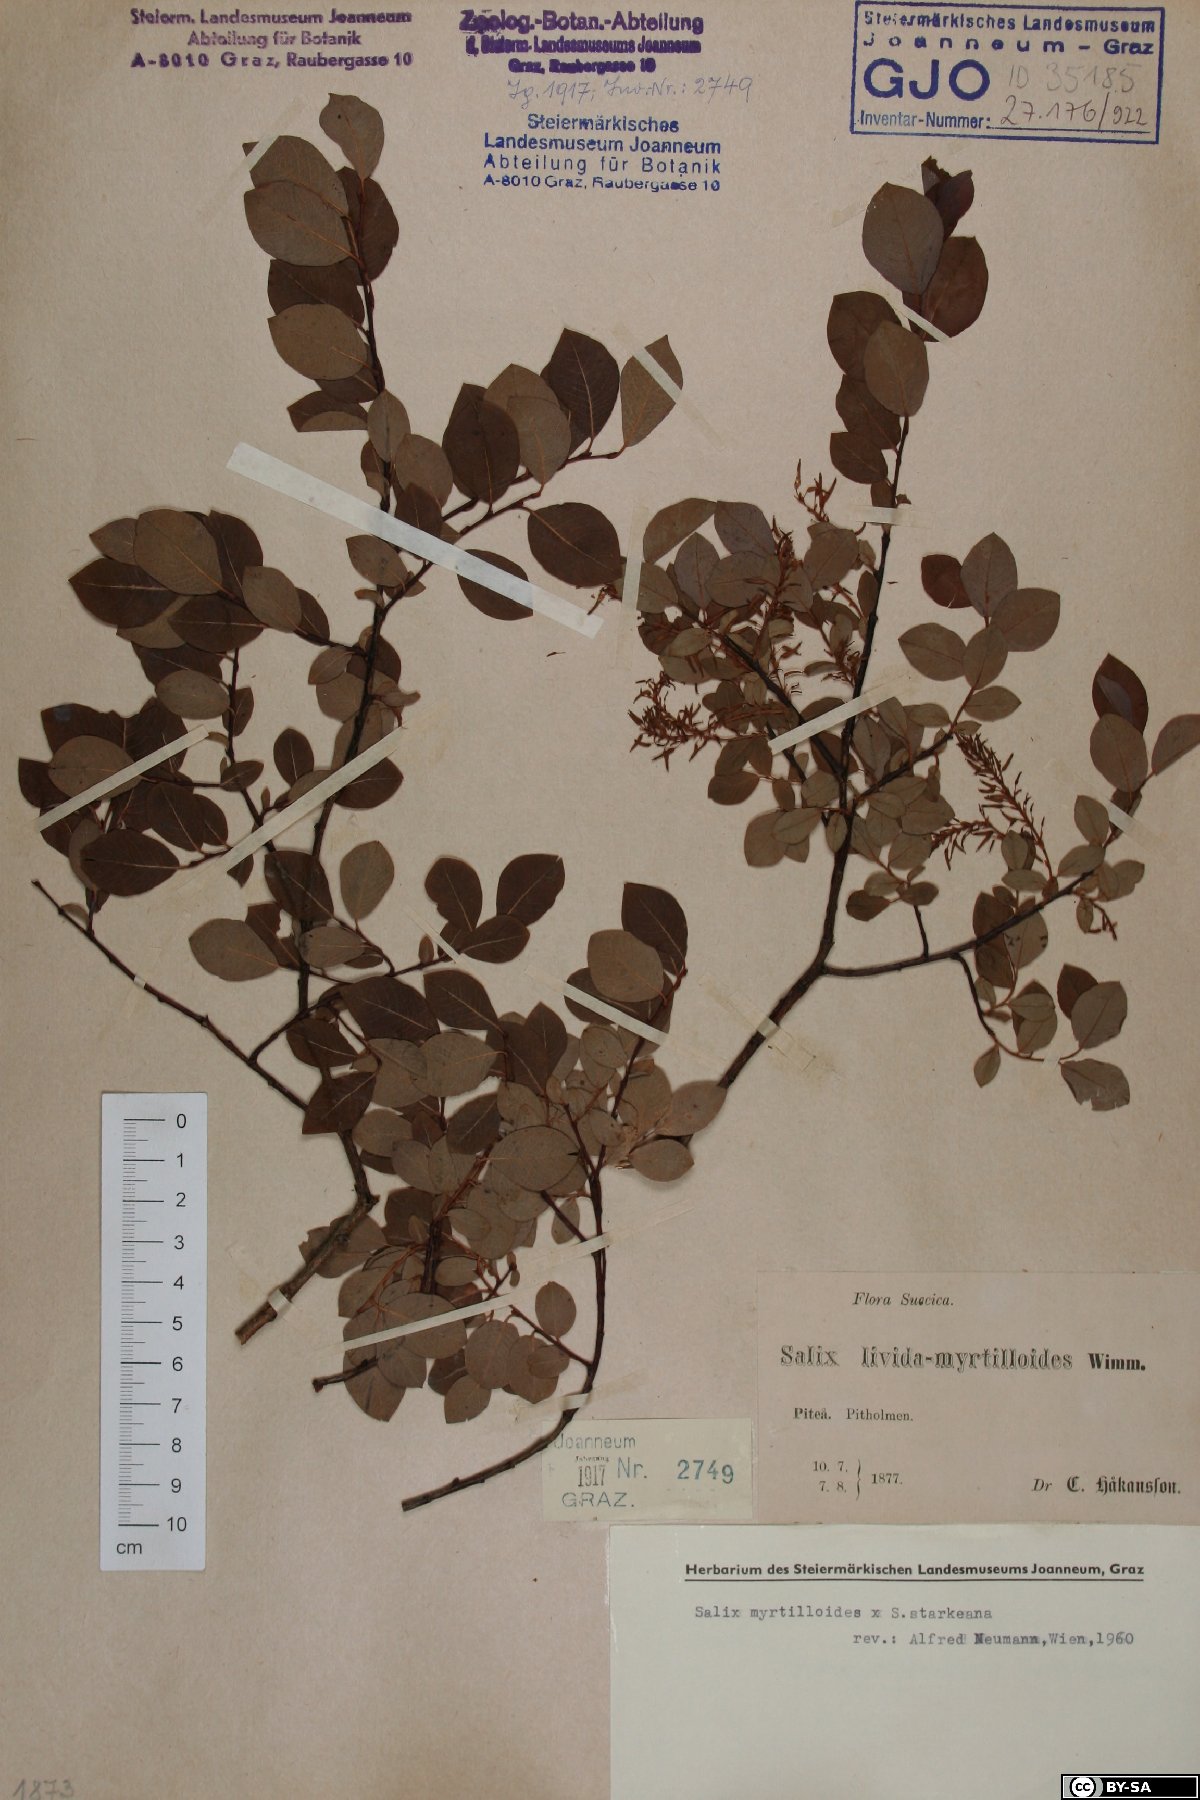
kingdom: Plantae
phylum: Tracheophyta
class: Magnoliopsida
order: Malpighiales
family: Salicaceae
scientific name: Salicaceae
